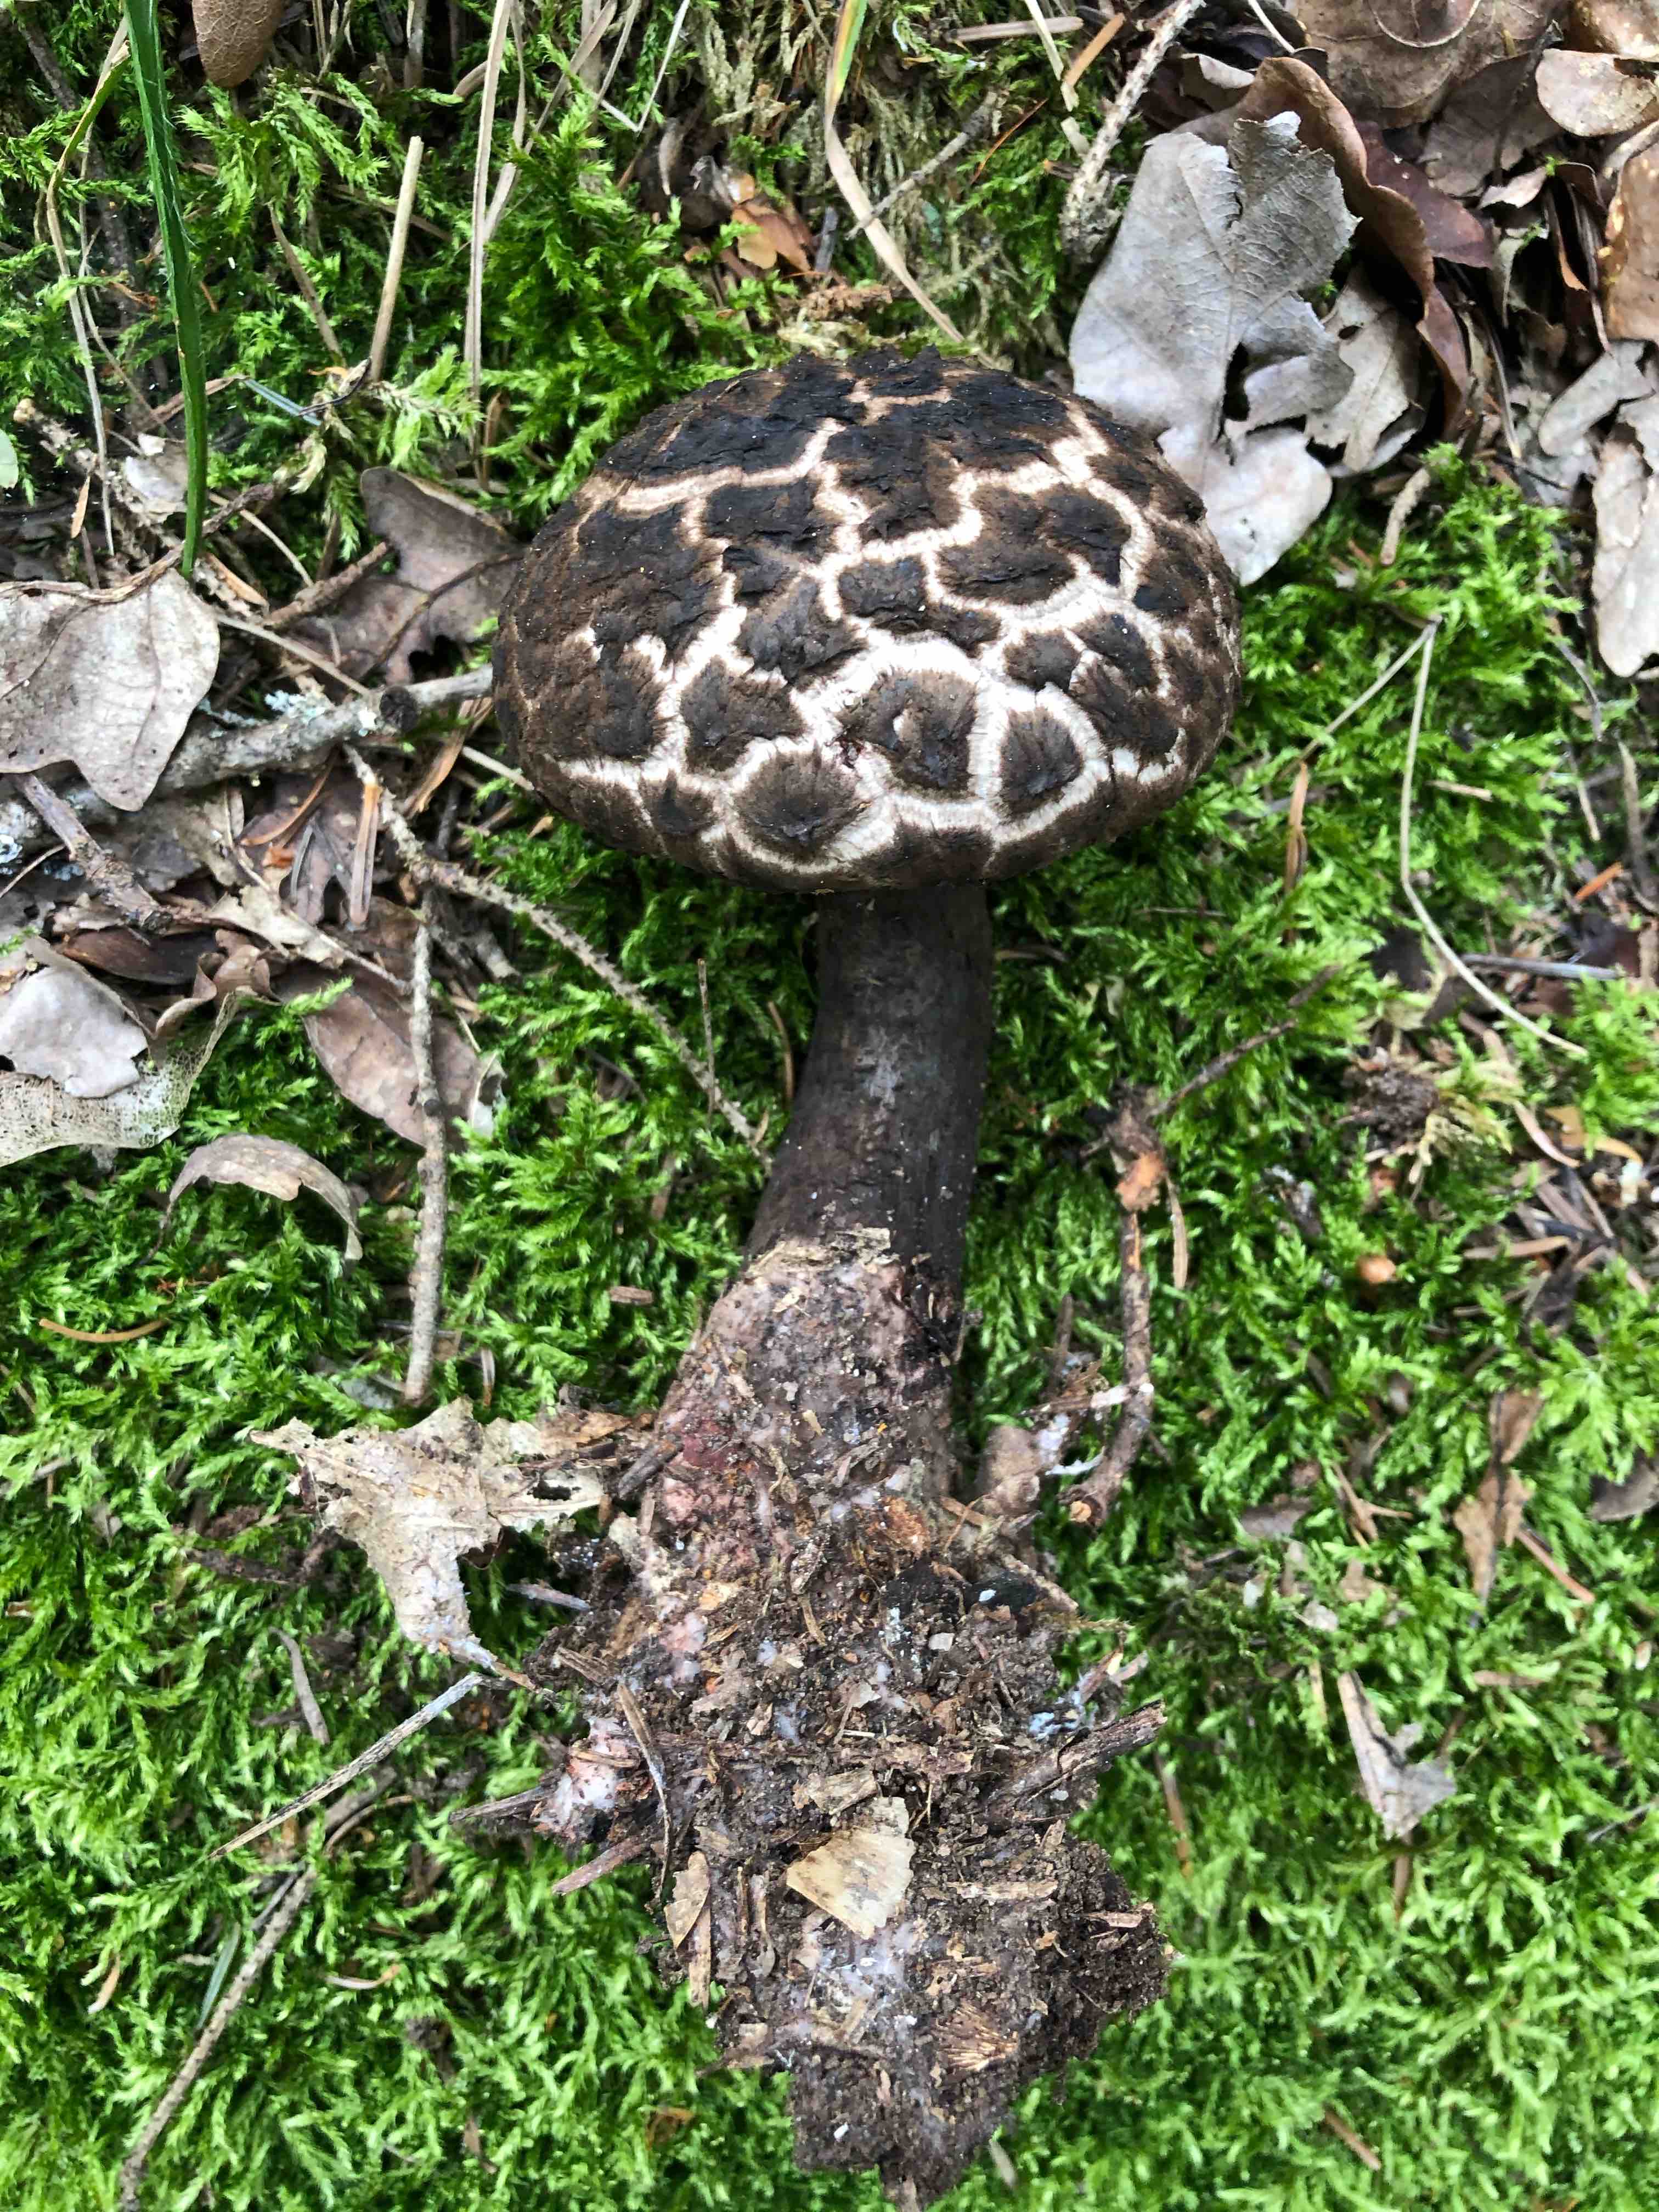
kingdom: Fungi
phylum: Basidiomycota
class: Agaricomycetes
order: Boletales
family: Boletaceae
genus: Strobilomyces
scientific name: Strobilomyces strobilaceus
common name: koglerørhat
